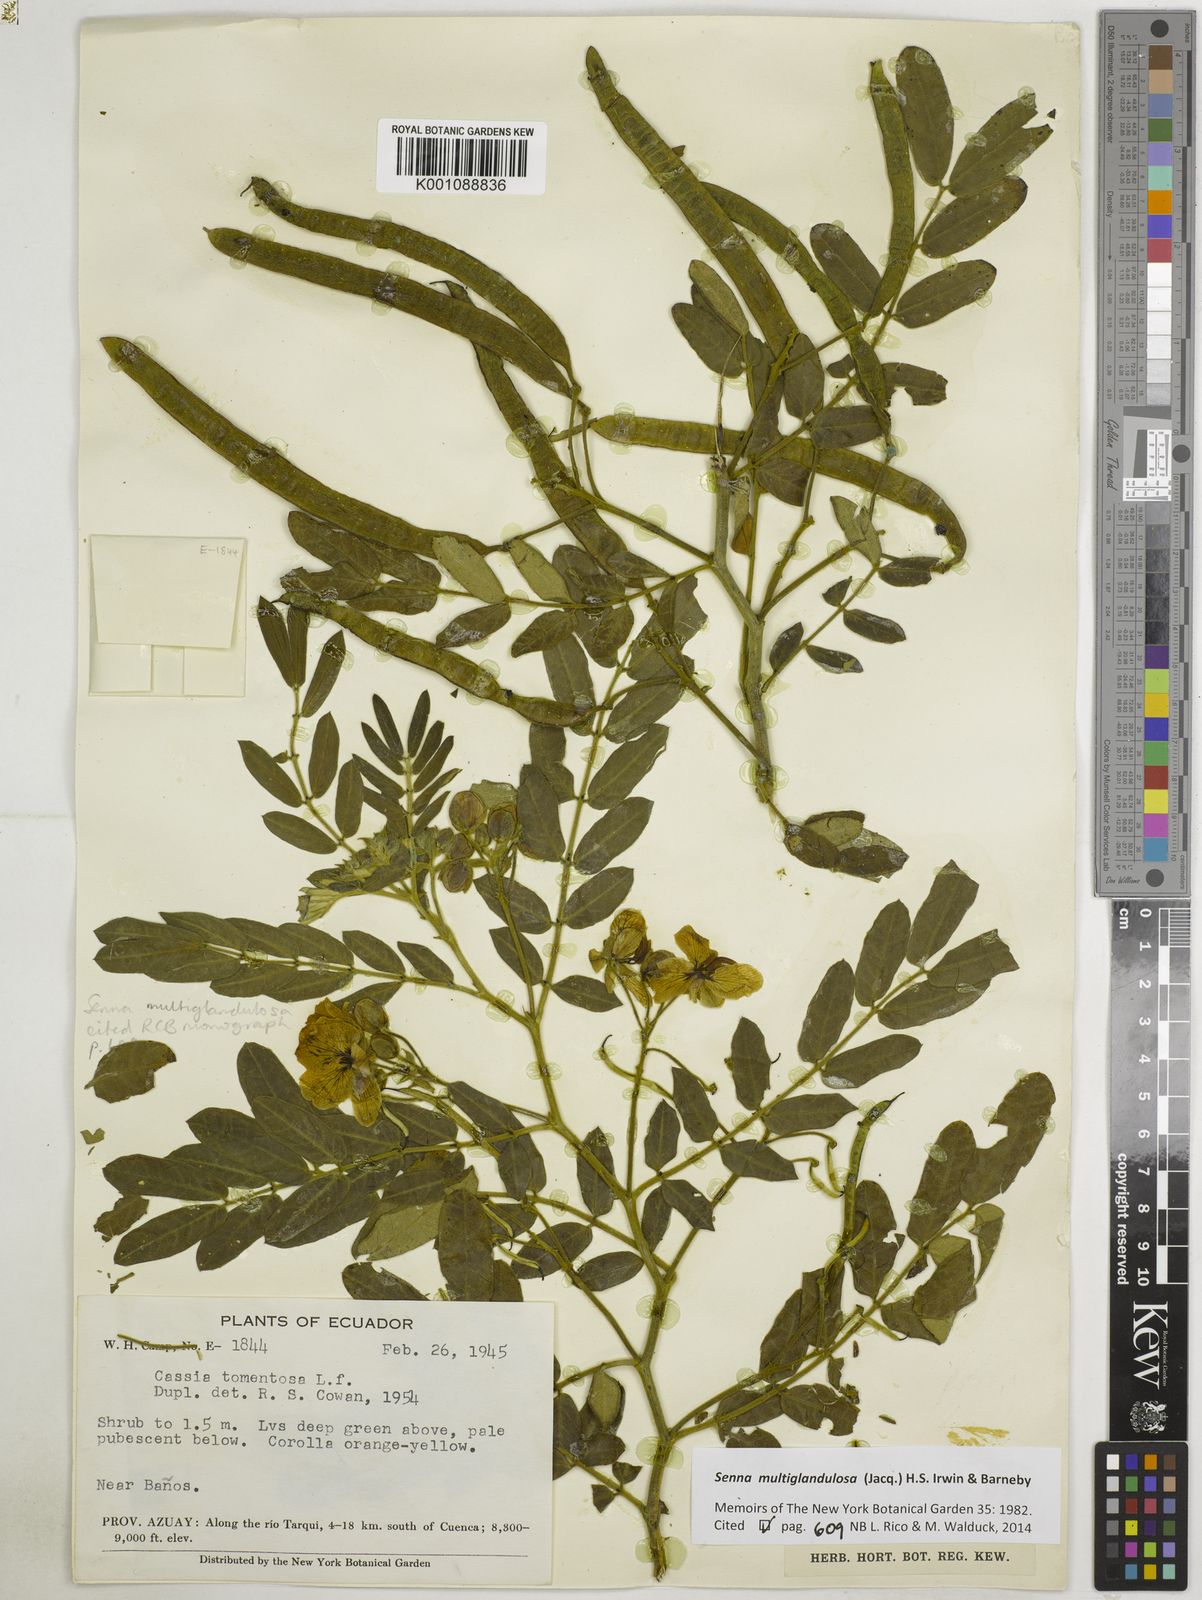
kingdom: Plantae
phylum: Tracheophyta
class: Magnoliopsida
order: Fabales
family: Fabaceae
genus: Senna
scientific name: Senna multiglandulosa
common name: Glandular senna
